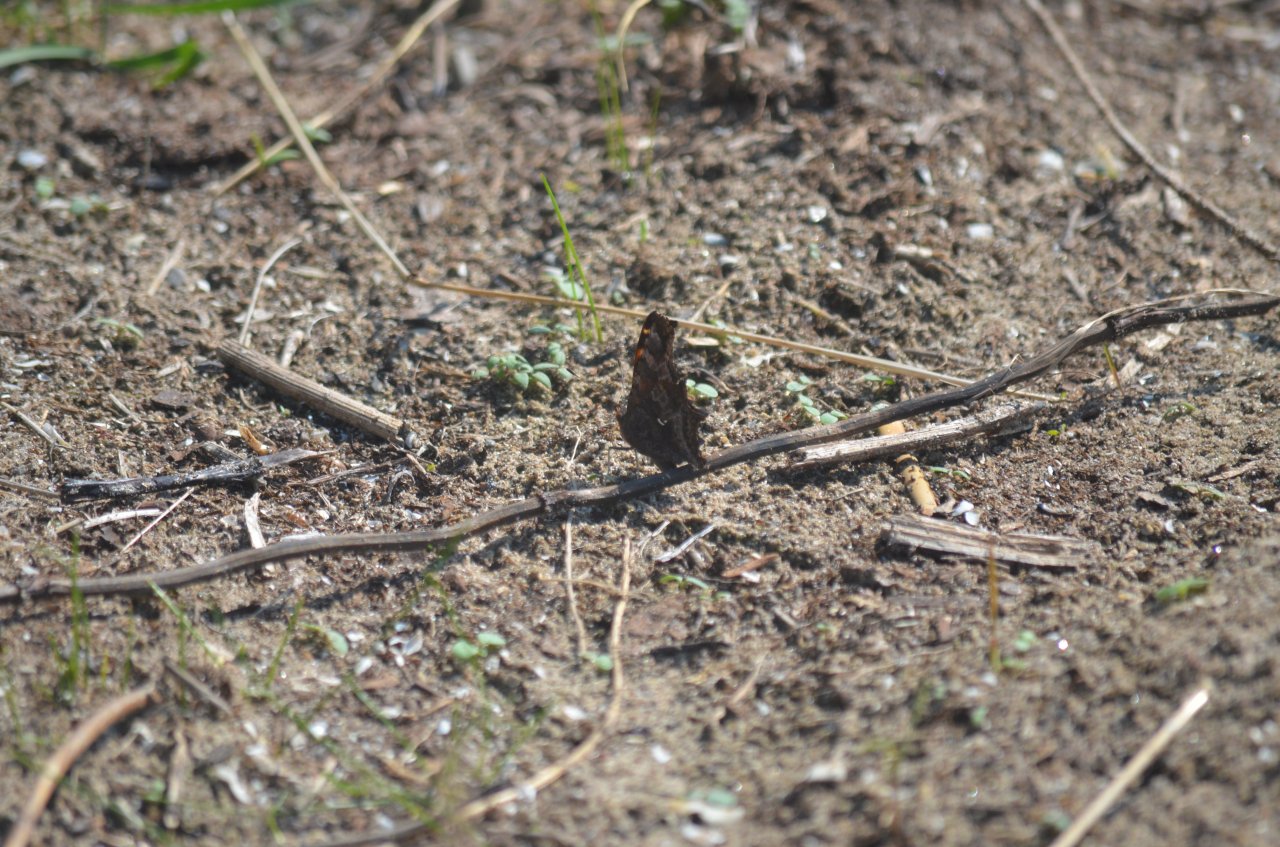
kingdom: Animalia
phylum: Arthropoda
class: Insecta
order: Lepidoptera
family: Nymphalidae
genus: Polygonia
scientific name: Polygonia comma
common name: Eastern Comma
